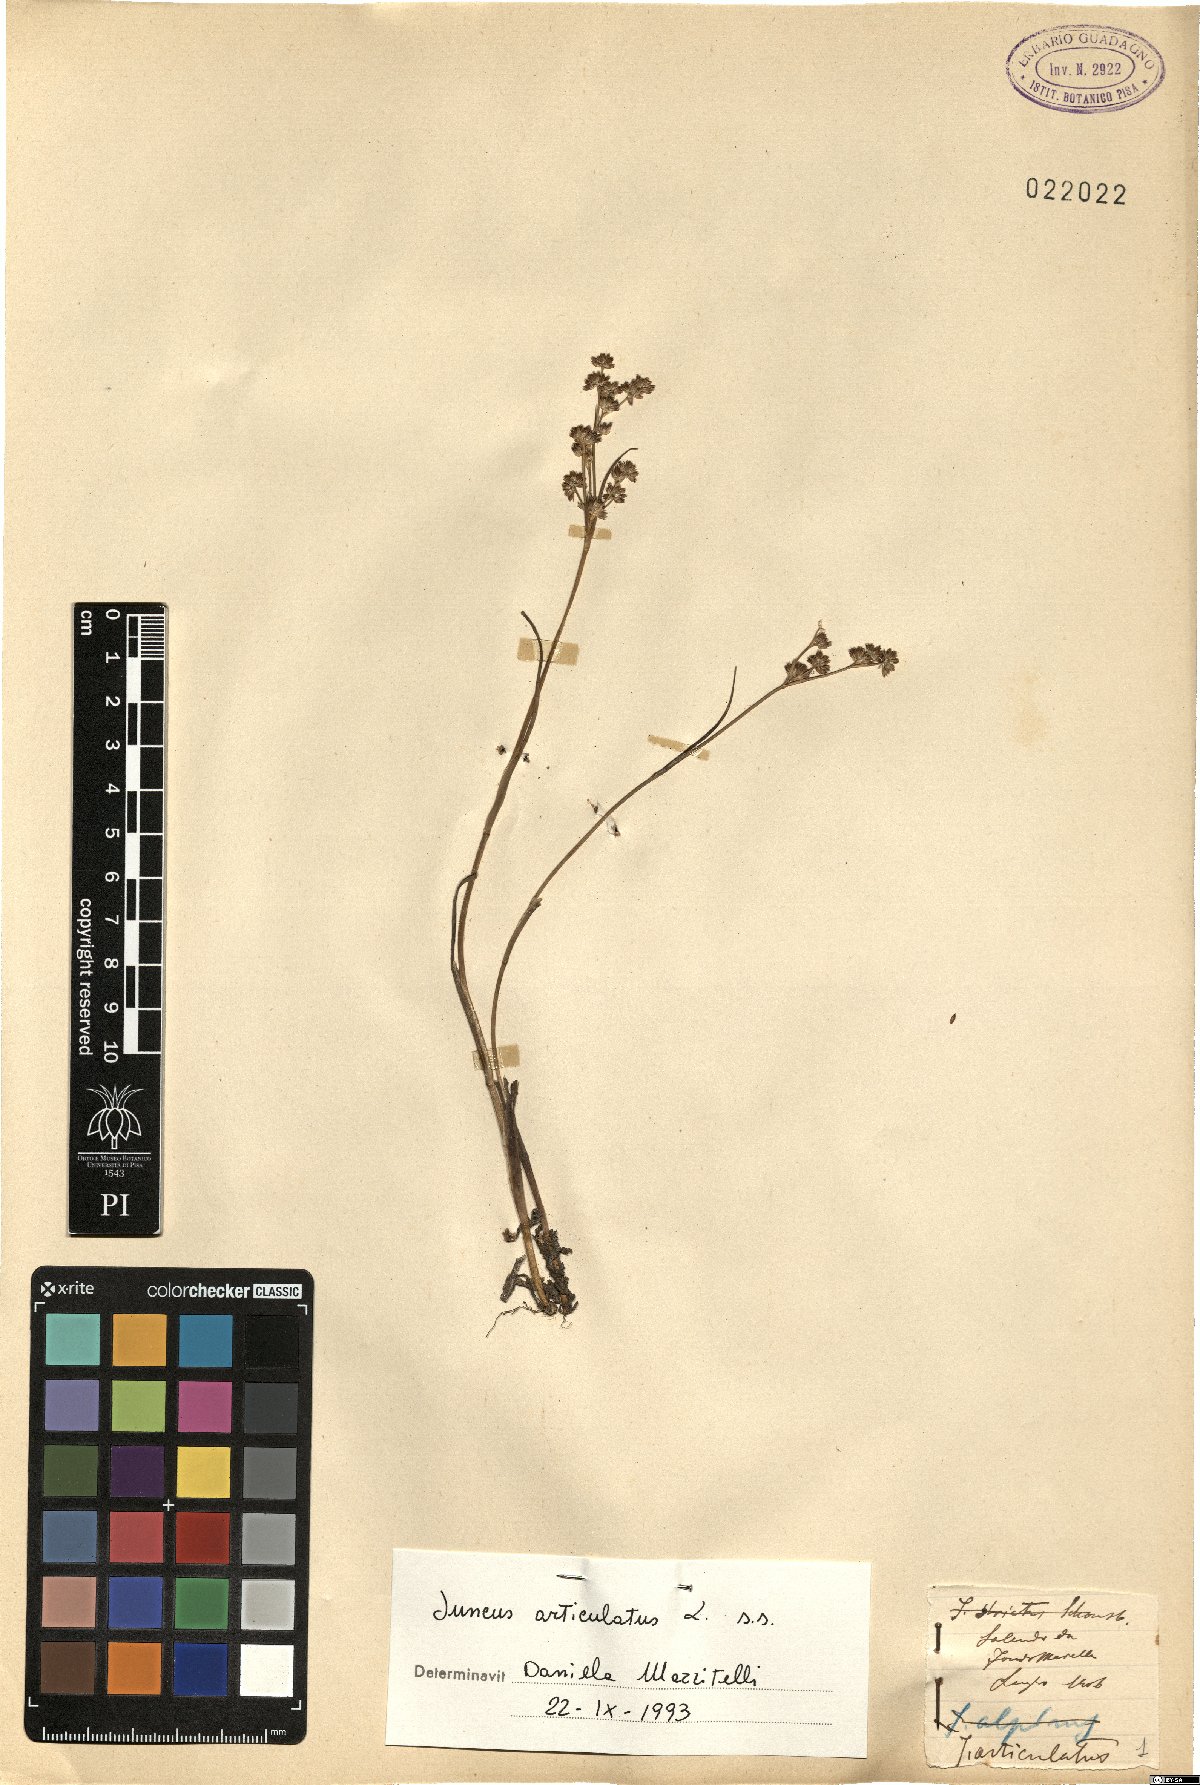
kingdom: Plantae
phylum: Tracheophyta
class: Liliopsida
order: Poales
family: Juncaceae
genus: Juncus
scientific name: Juncus articulatus
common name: Jointed rush
